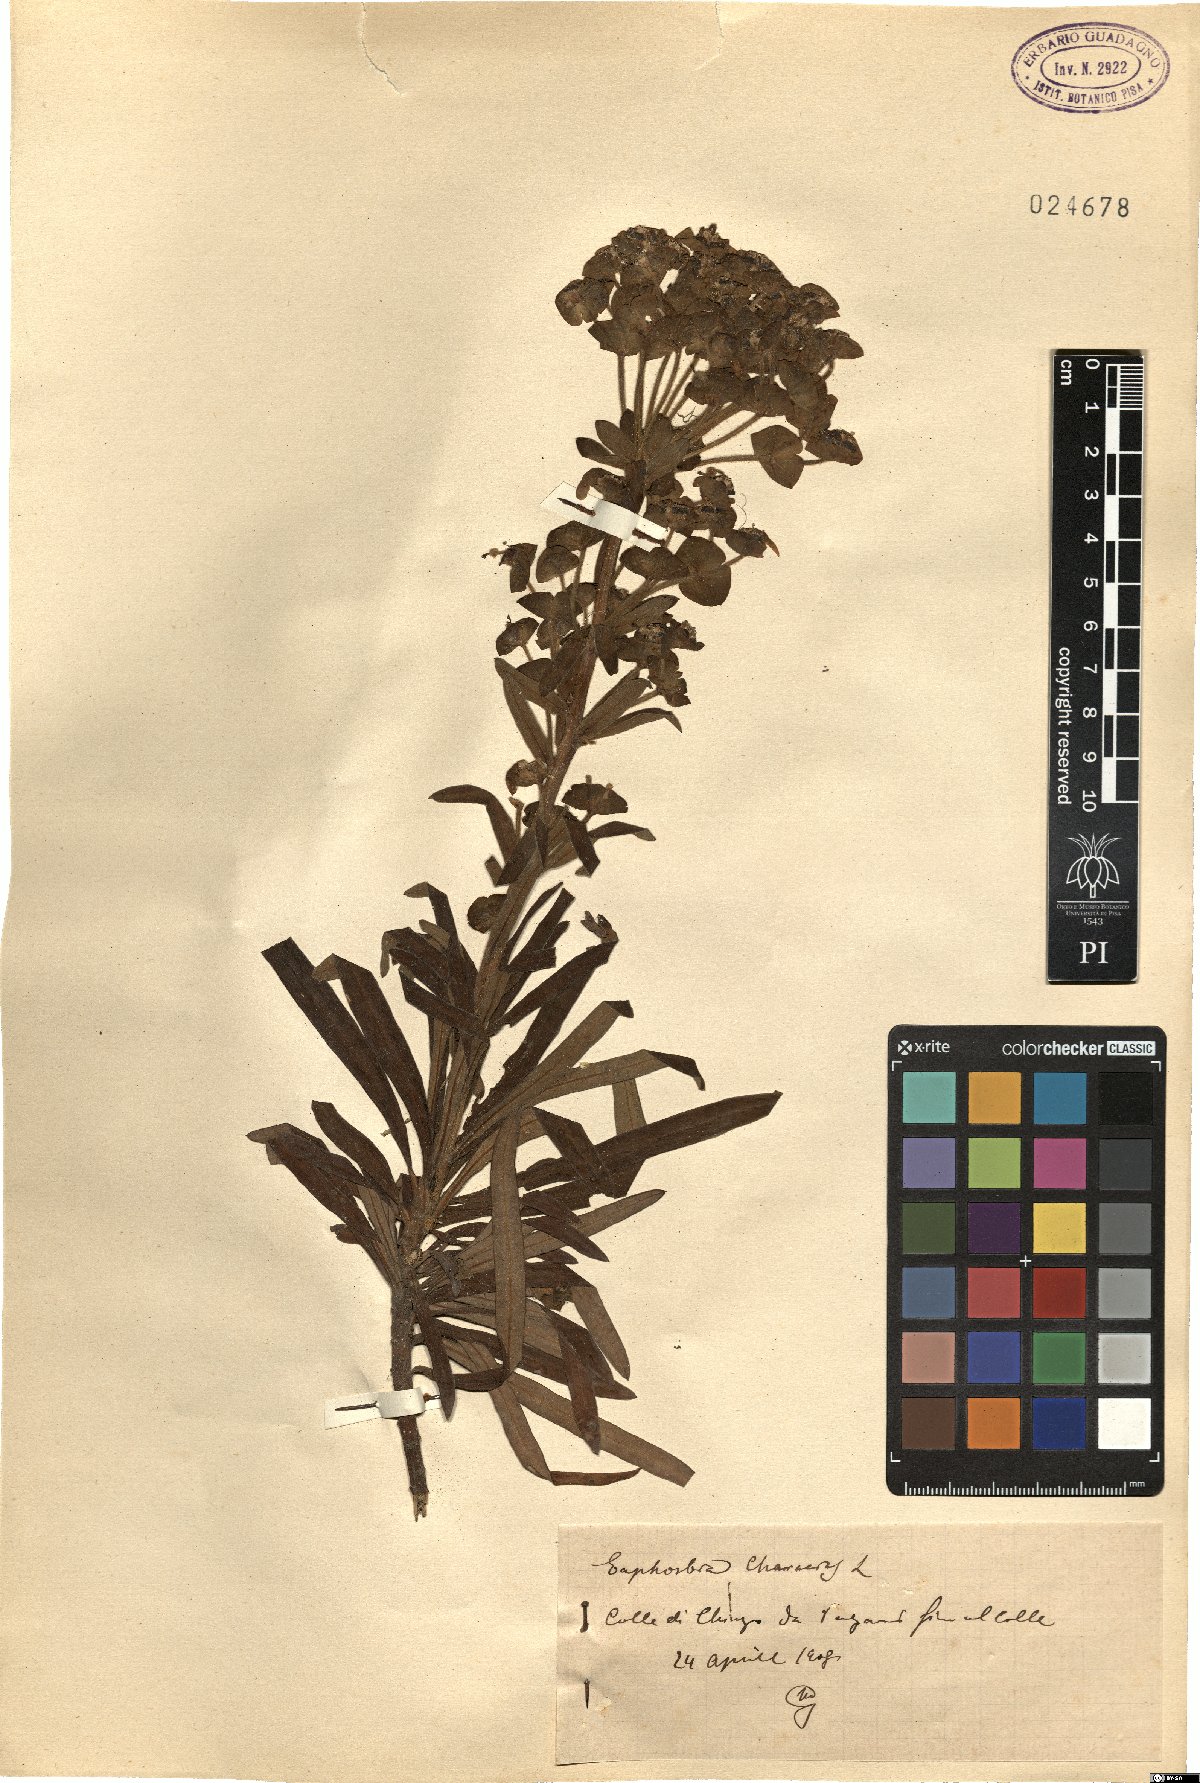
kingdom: Plantae
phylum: Tracheophyta
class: Magnoliopsida
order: Malpighiales
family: Euphorbiaceae
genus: Euphorbia
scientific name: Euphorbia characias
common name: Mediterranean spurge
